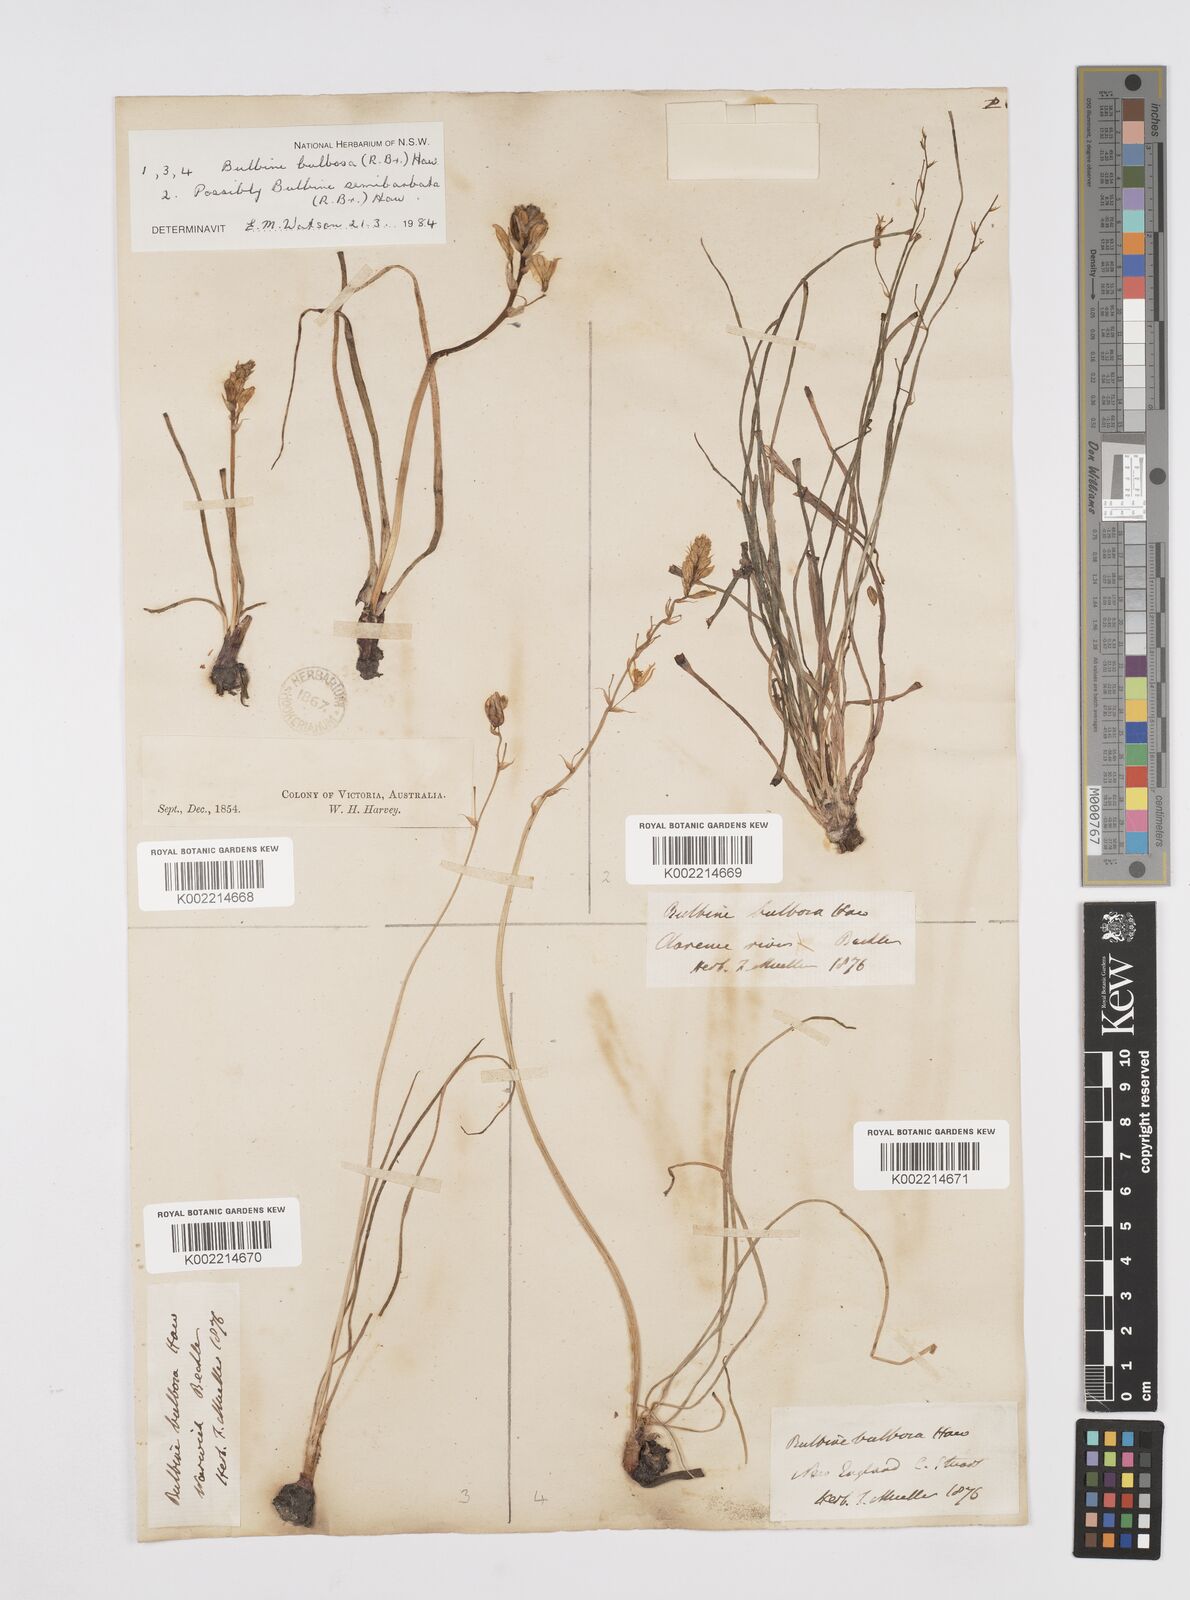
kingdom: Plantae
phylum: Tracheophyta
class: Liliopsida
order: Asparagales
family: Asphodelaceae
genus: Bulbine
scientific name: Bulbine bulbosa
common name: Golden-lily
